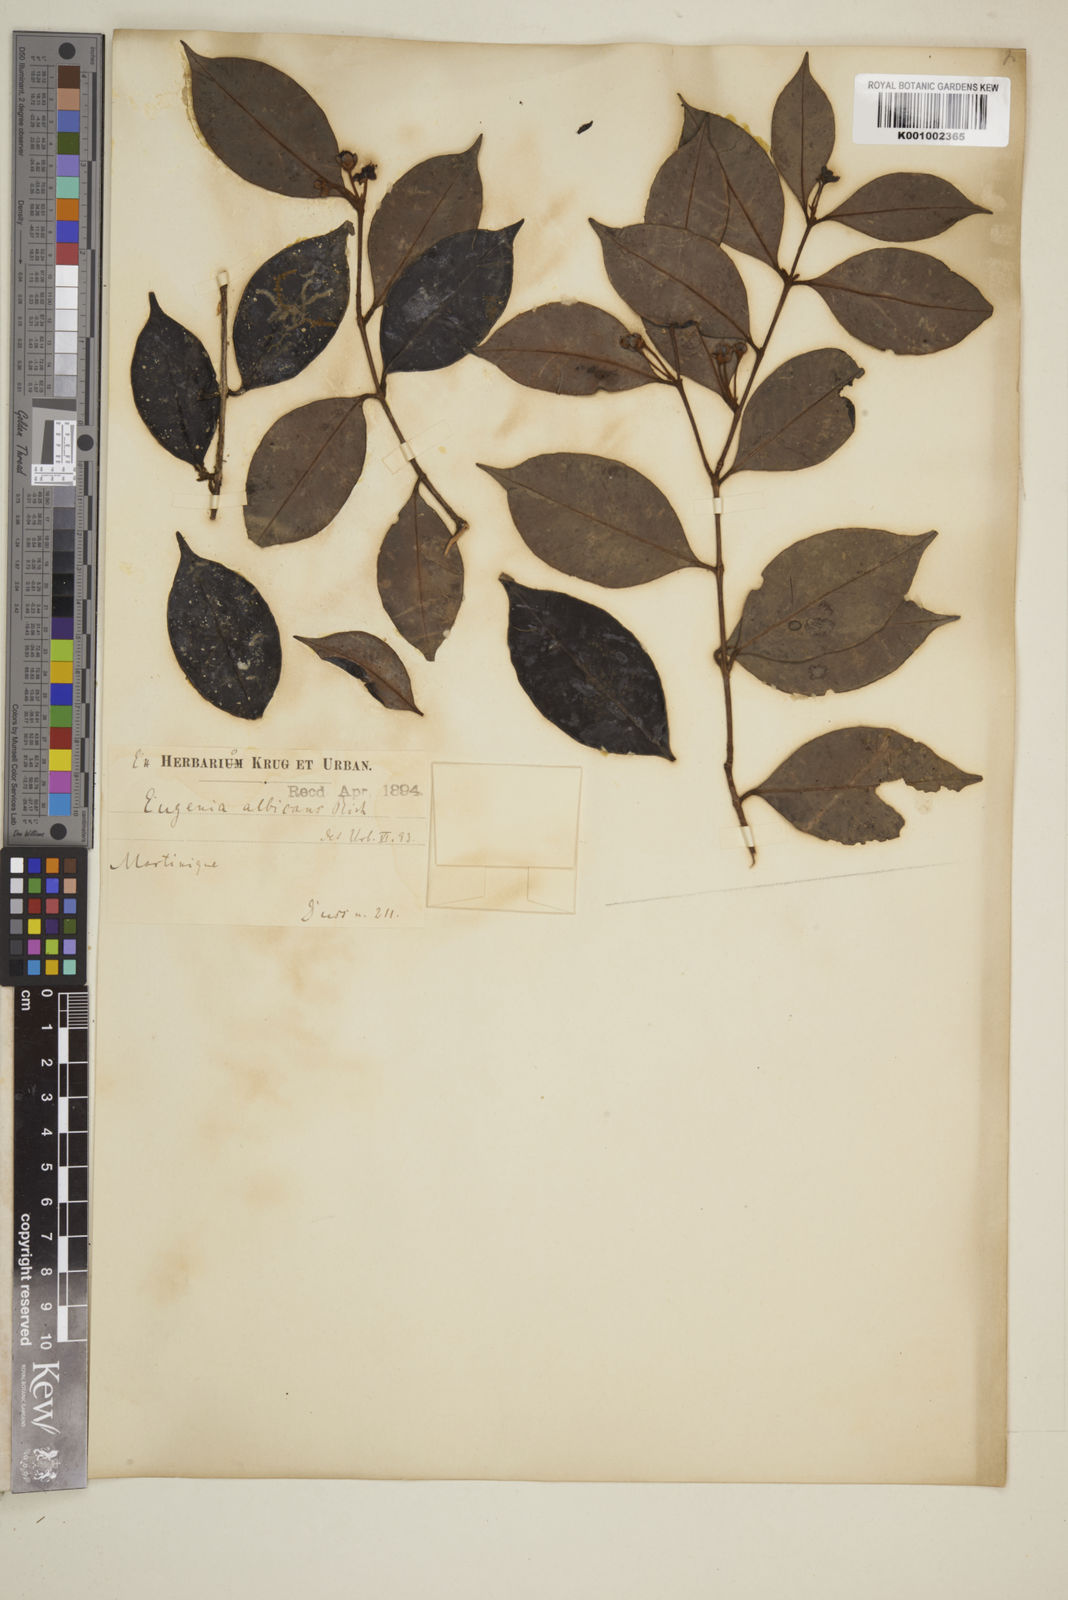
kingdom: Plantae
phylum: Tracheophyta
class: Magnoliopsida
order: Myrtales
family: Myrtaceae
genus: Eugenia
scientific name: Eugenia albicans
